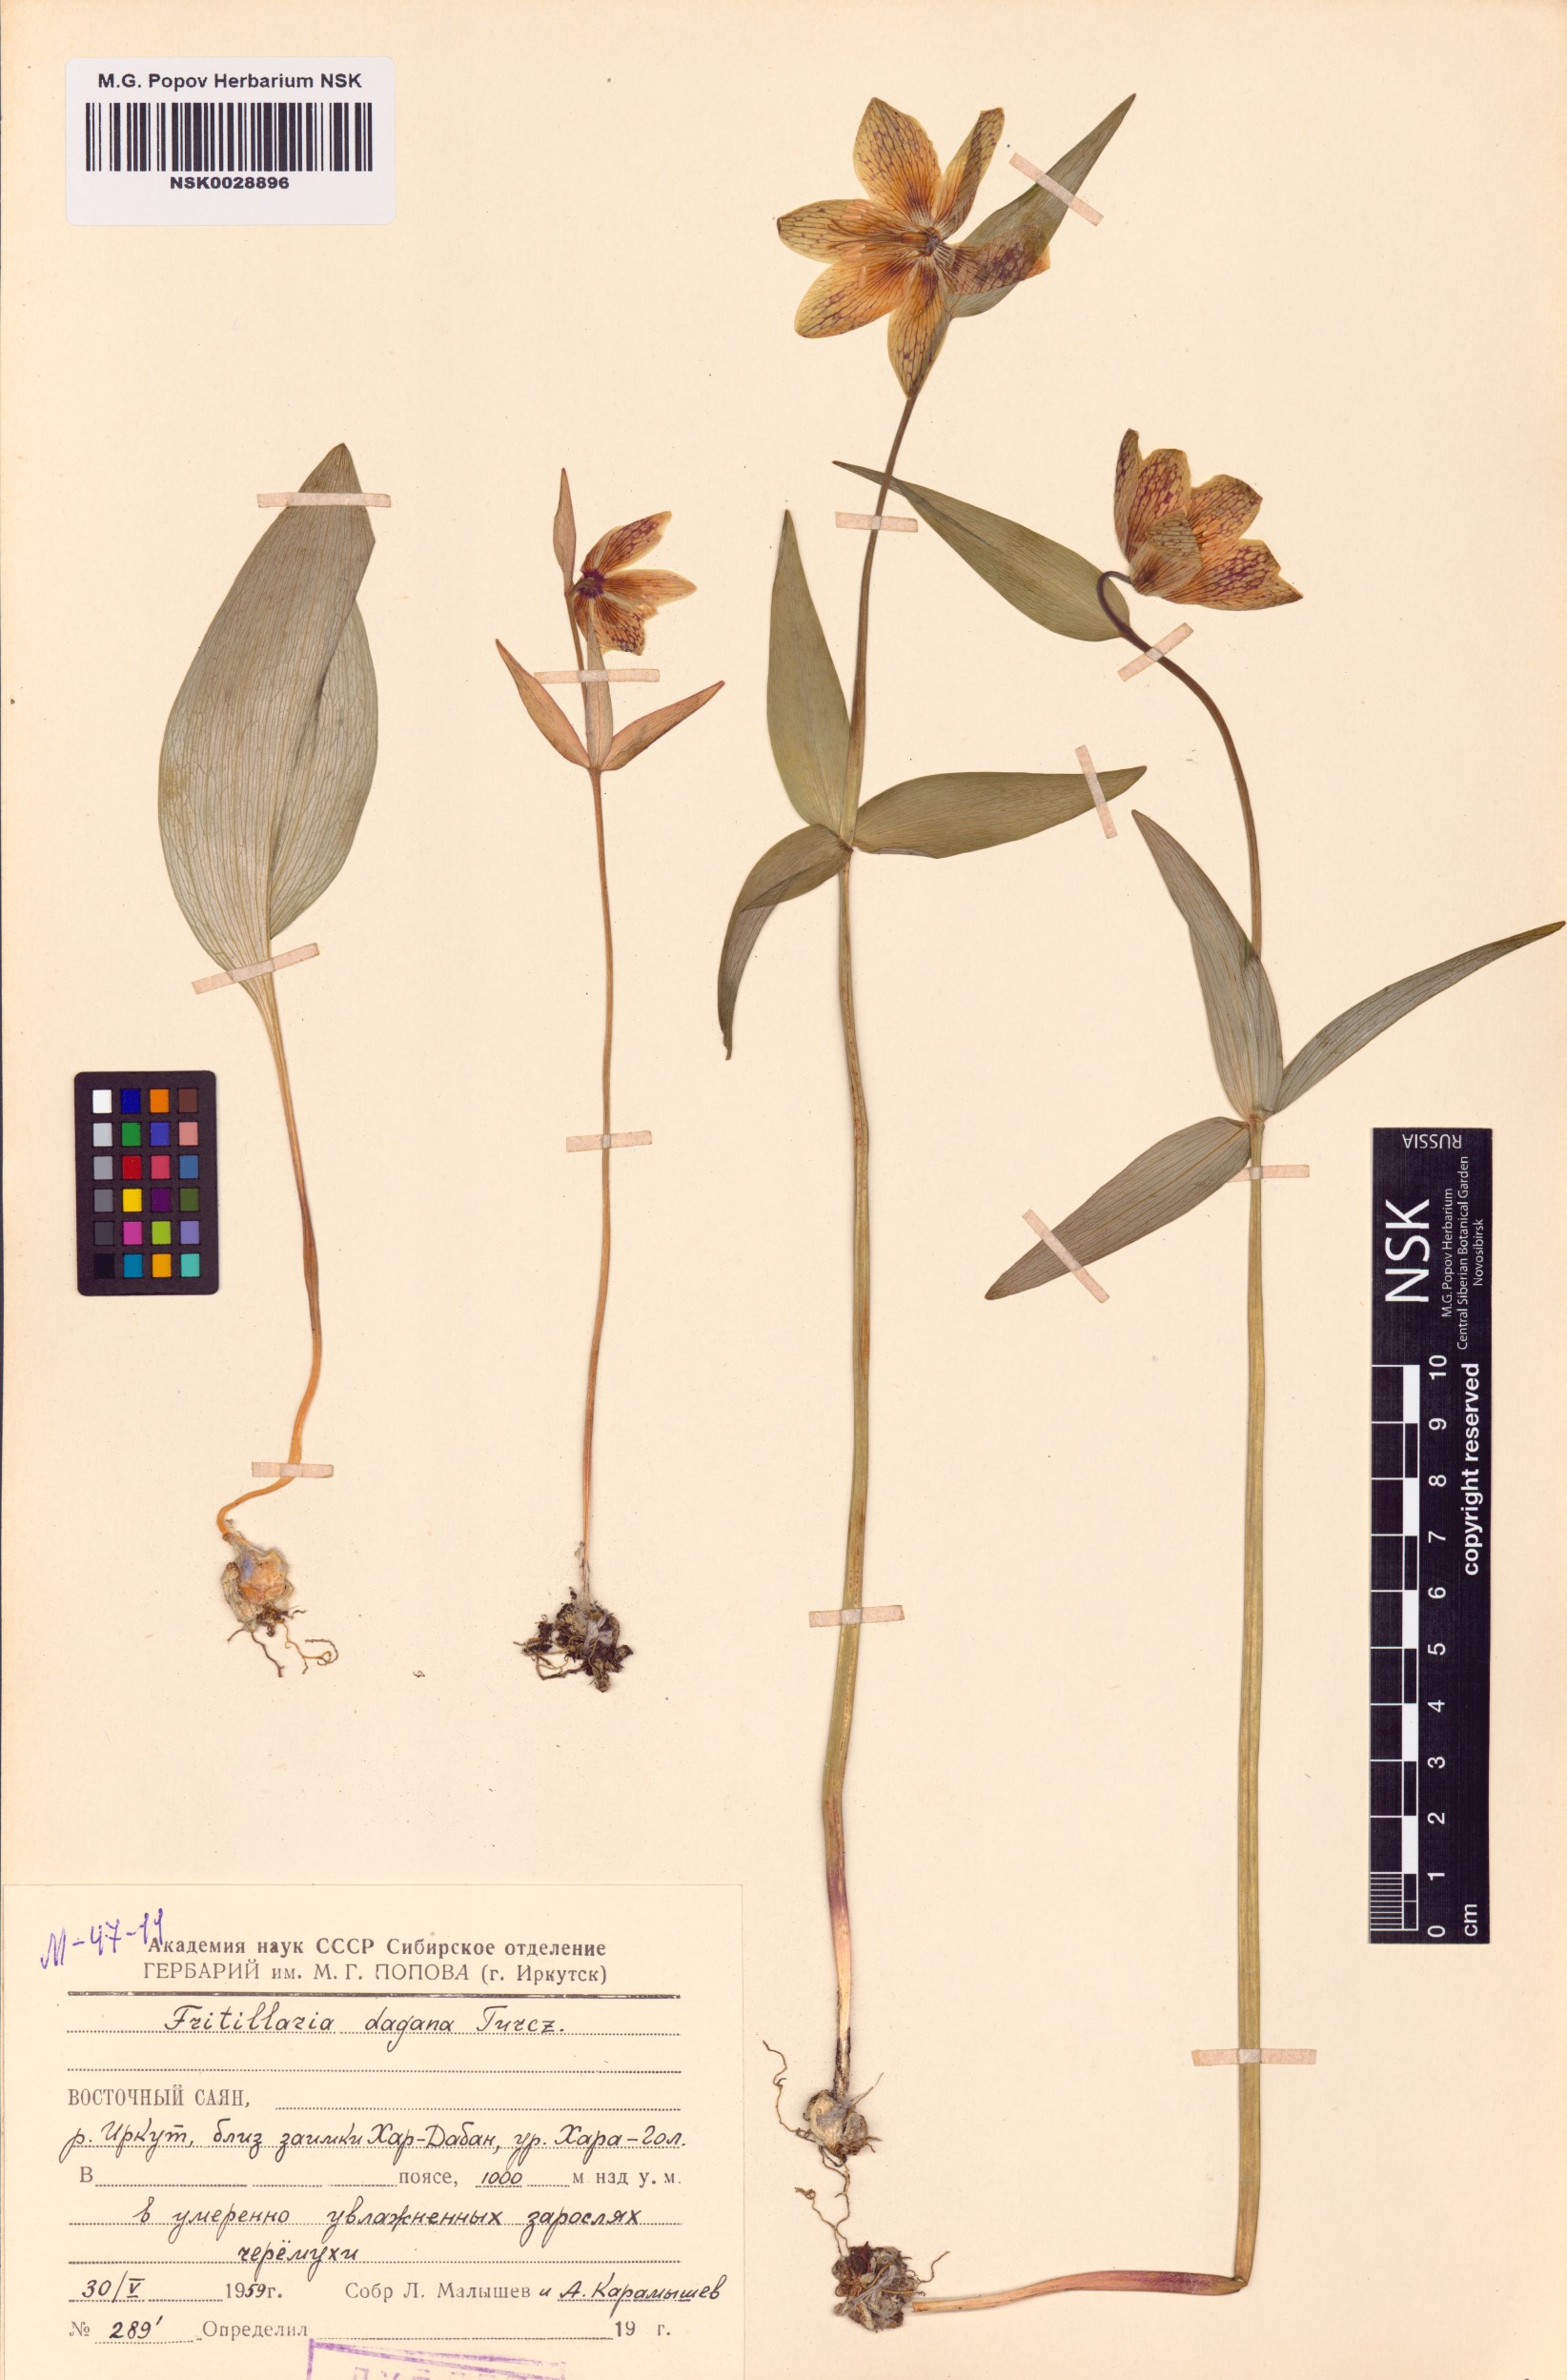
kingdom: Plantae
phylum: Tracheophyta
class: Liliopsida
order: Liliales
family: Liliaceae
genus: Fritillaria
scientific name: Fritillaria dagana
